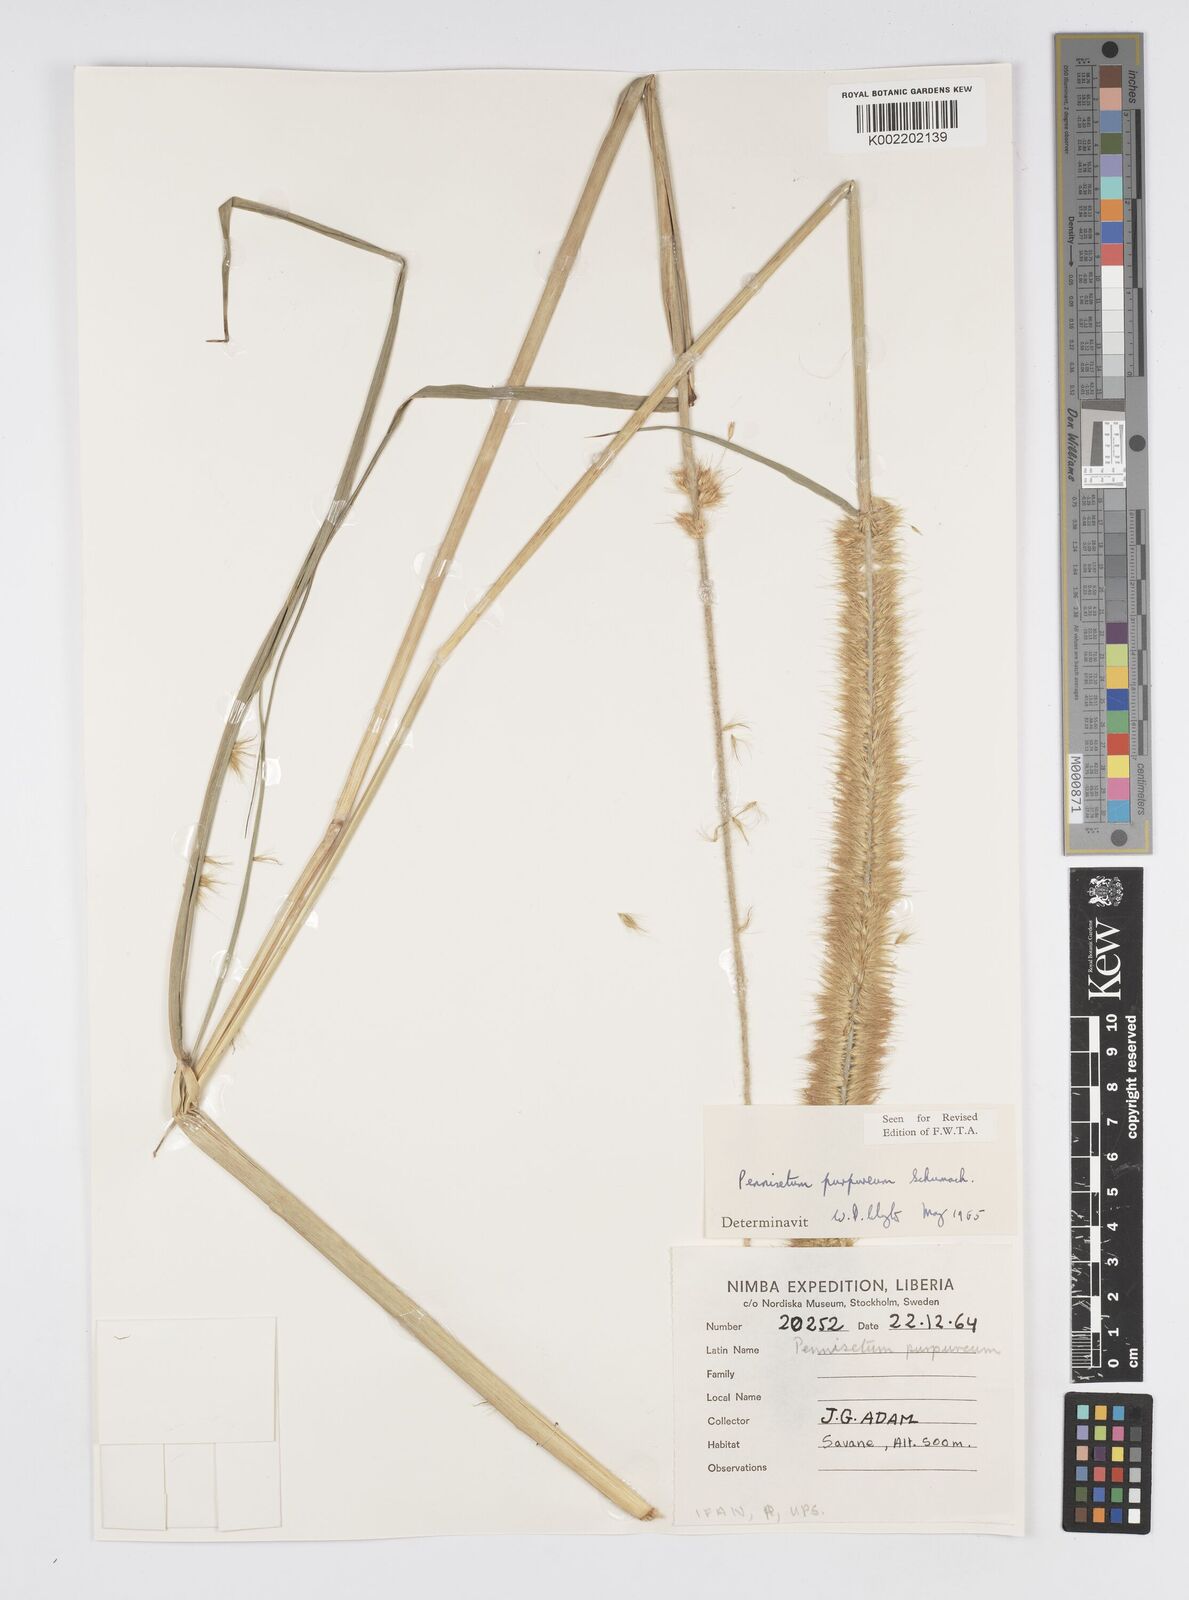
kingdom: Plantae
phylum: Tracheophyta
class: Liliopsida
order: Poales
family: Poaceae
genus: Cenchrus
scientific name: Cenchrus purpureus
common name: Elephant grass
